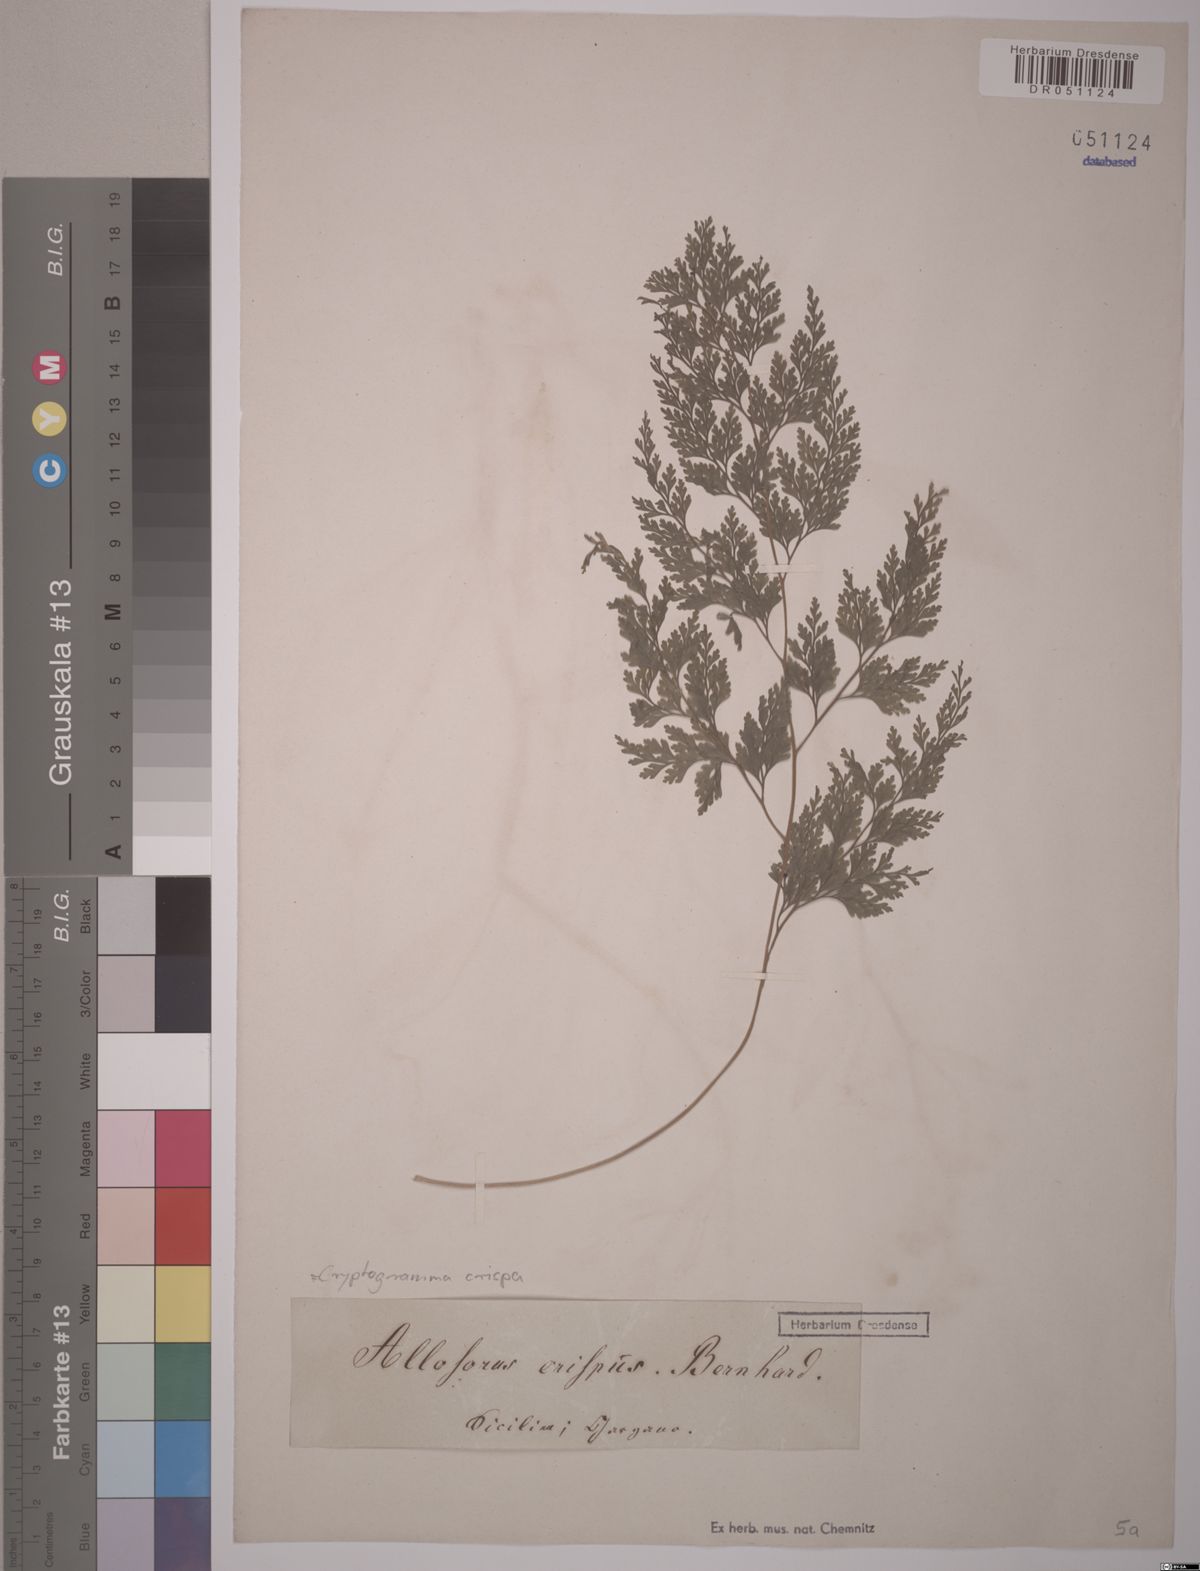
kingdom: Plantae
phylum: Tracheophyta
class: Polypodiopsida
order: Polypodiales
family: Pteridaceae
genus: Cryptogramma
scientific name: Cryptogramma crispa
